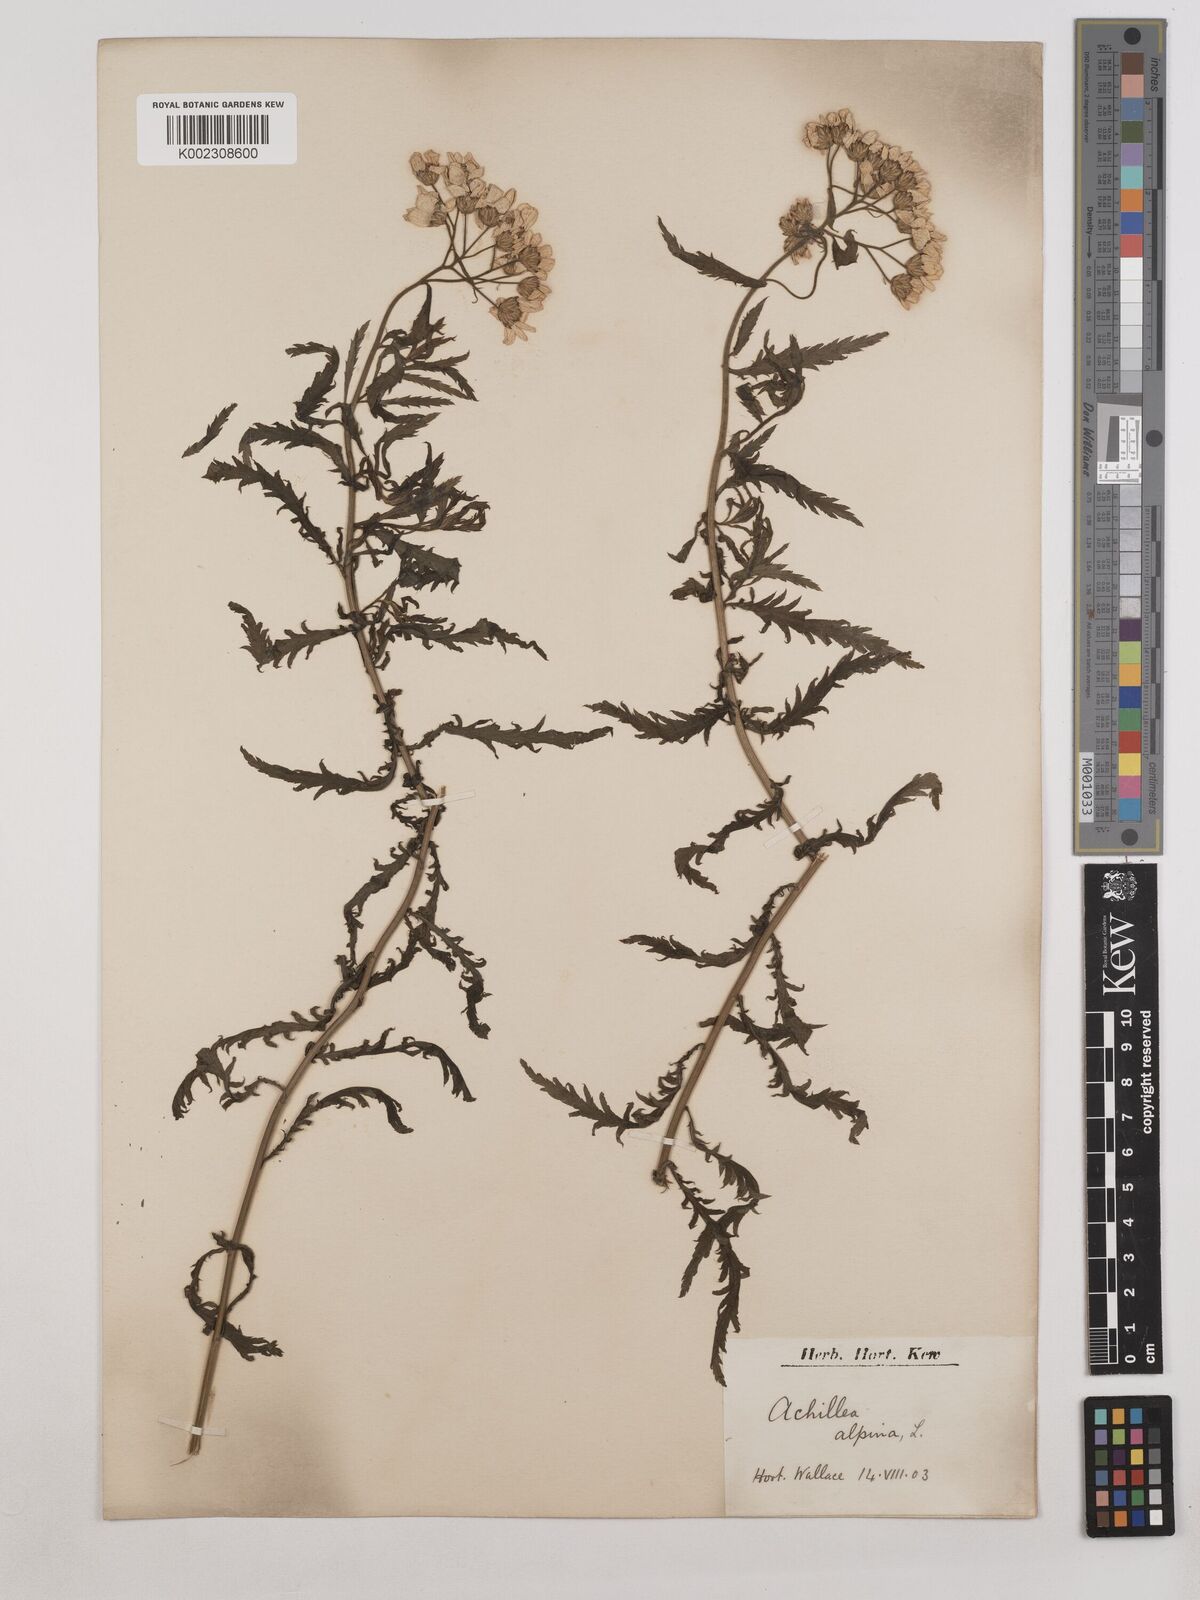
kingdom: Plantae
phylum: Tracheophyta
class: Magnoliopsida
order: Asterales
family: Asteraceae
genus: Achillea
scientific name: Achillea ptarmica
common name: Sneezeweed
